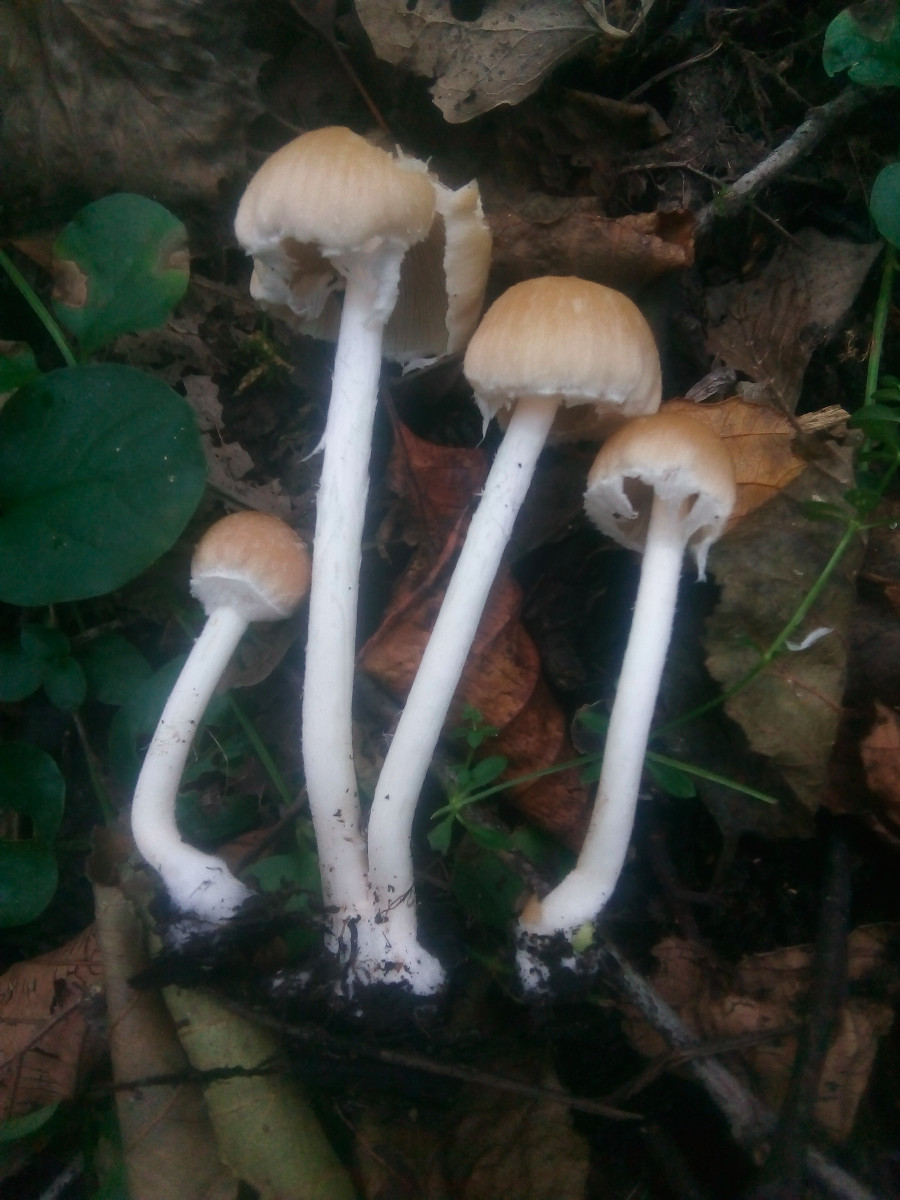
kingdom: Fungi
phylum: Basidiomycota
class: Agaricomycetes
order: Agaricales
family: Psathyrellaceae
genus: Candolleomyces
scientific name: Candolleomyces candolleanus
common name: Candolles mørkhat
